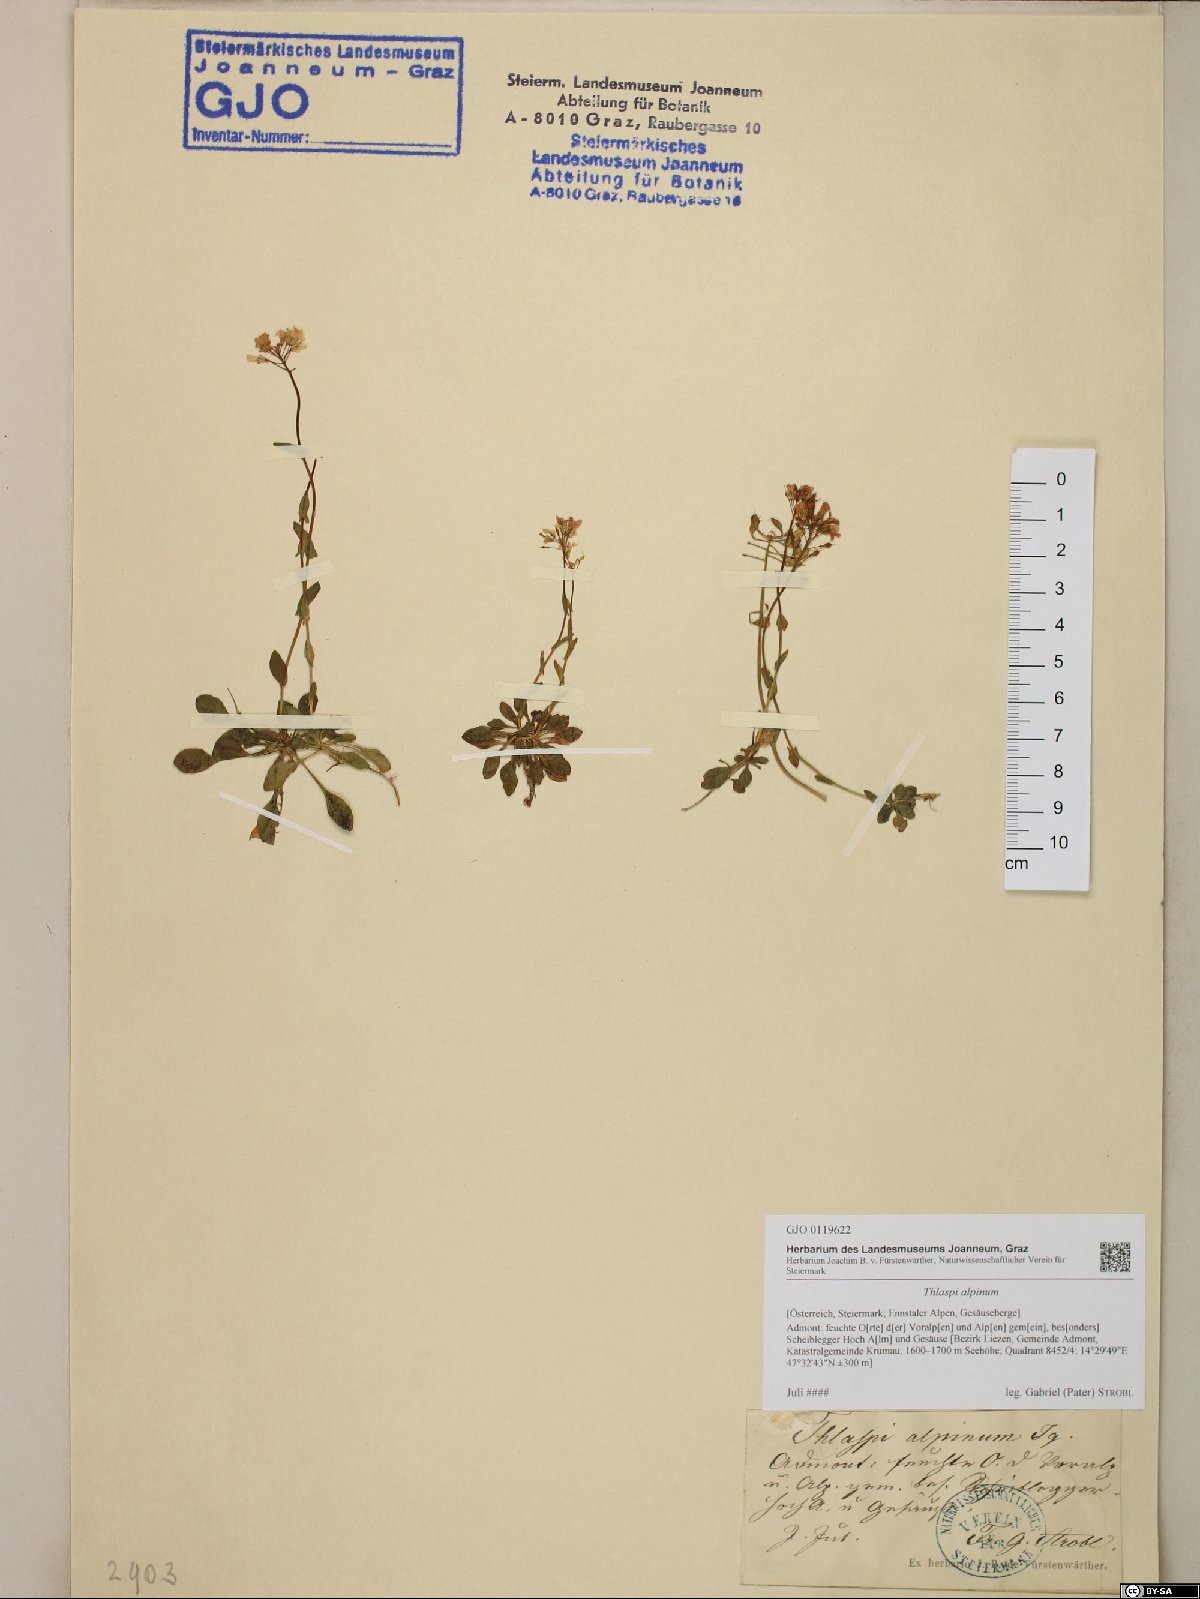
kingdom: Plantae
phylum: Tracheophyta
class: Magnoliopsida
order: Brassicales
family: Brassicaceae
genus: Noccaea
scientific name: Noccaea alpestris
